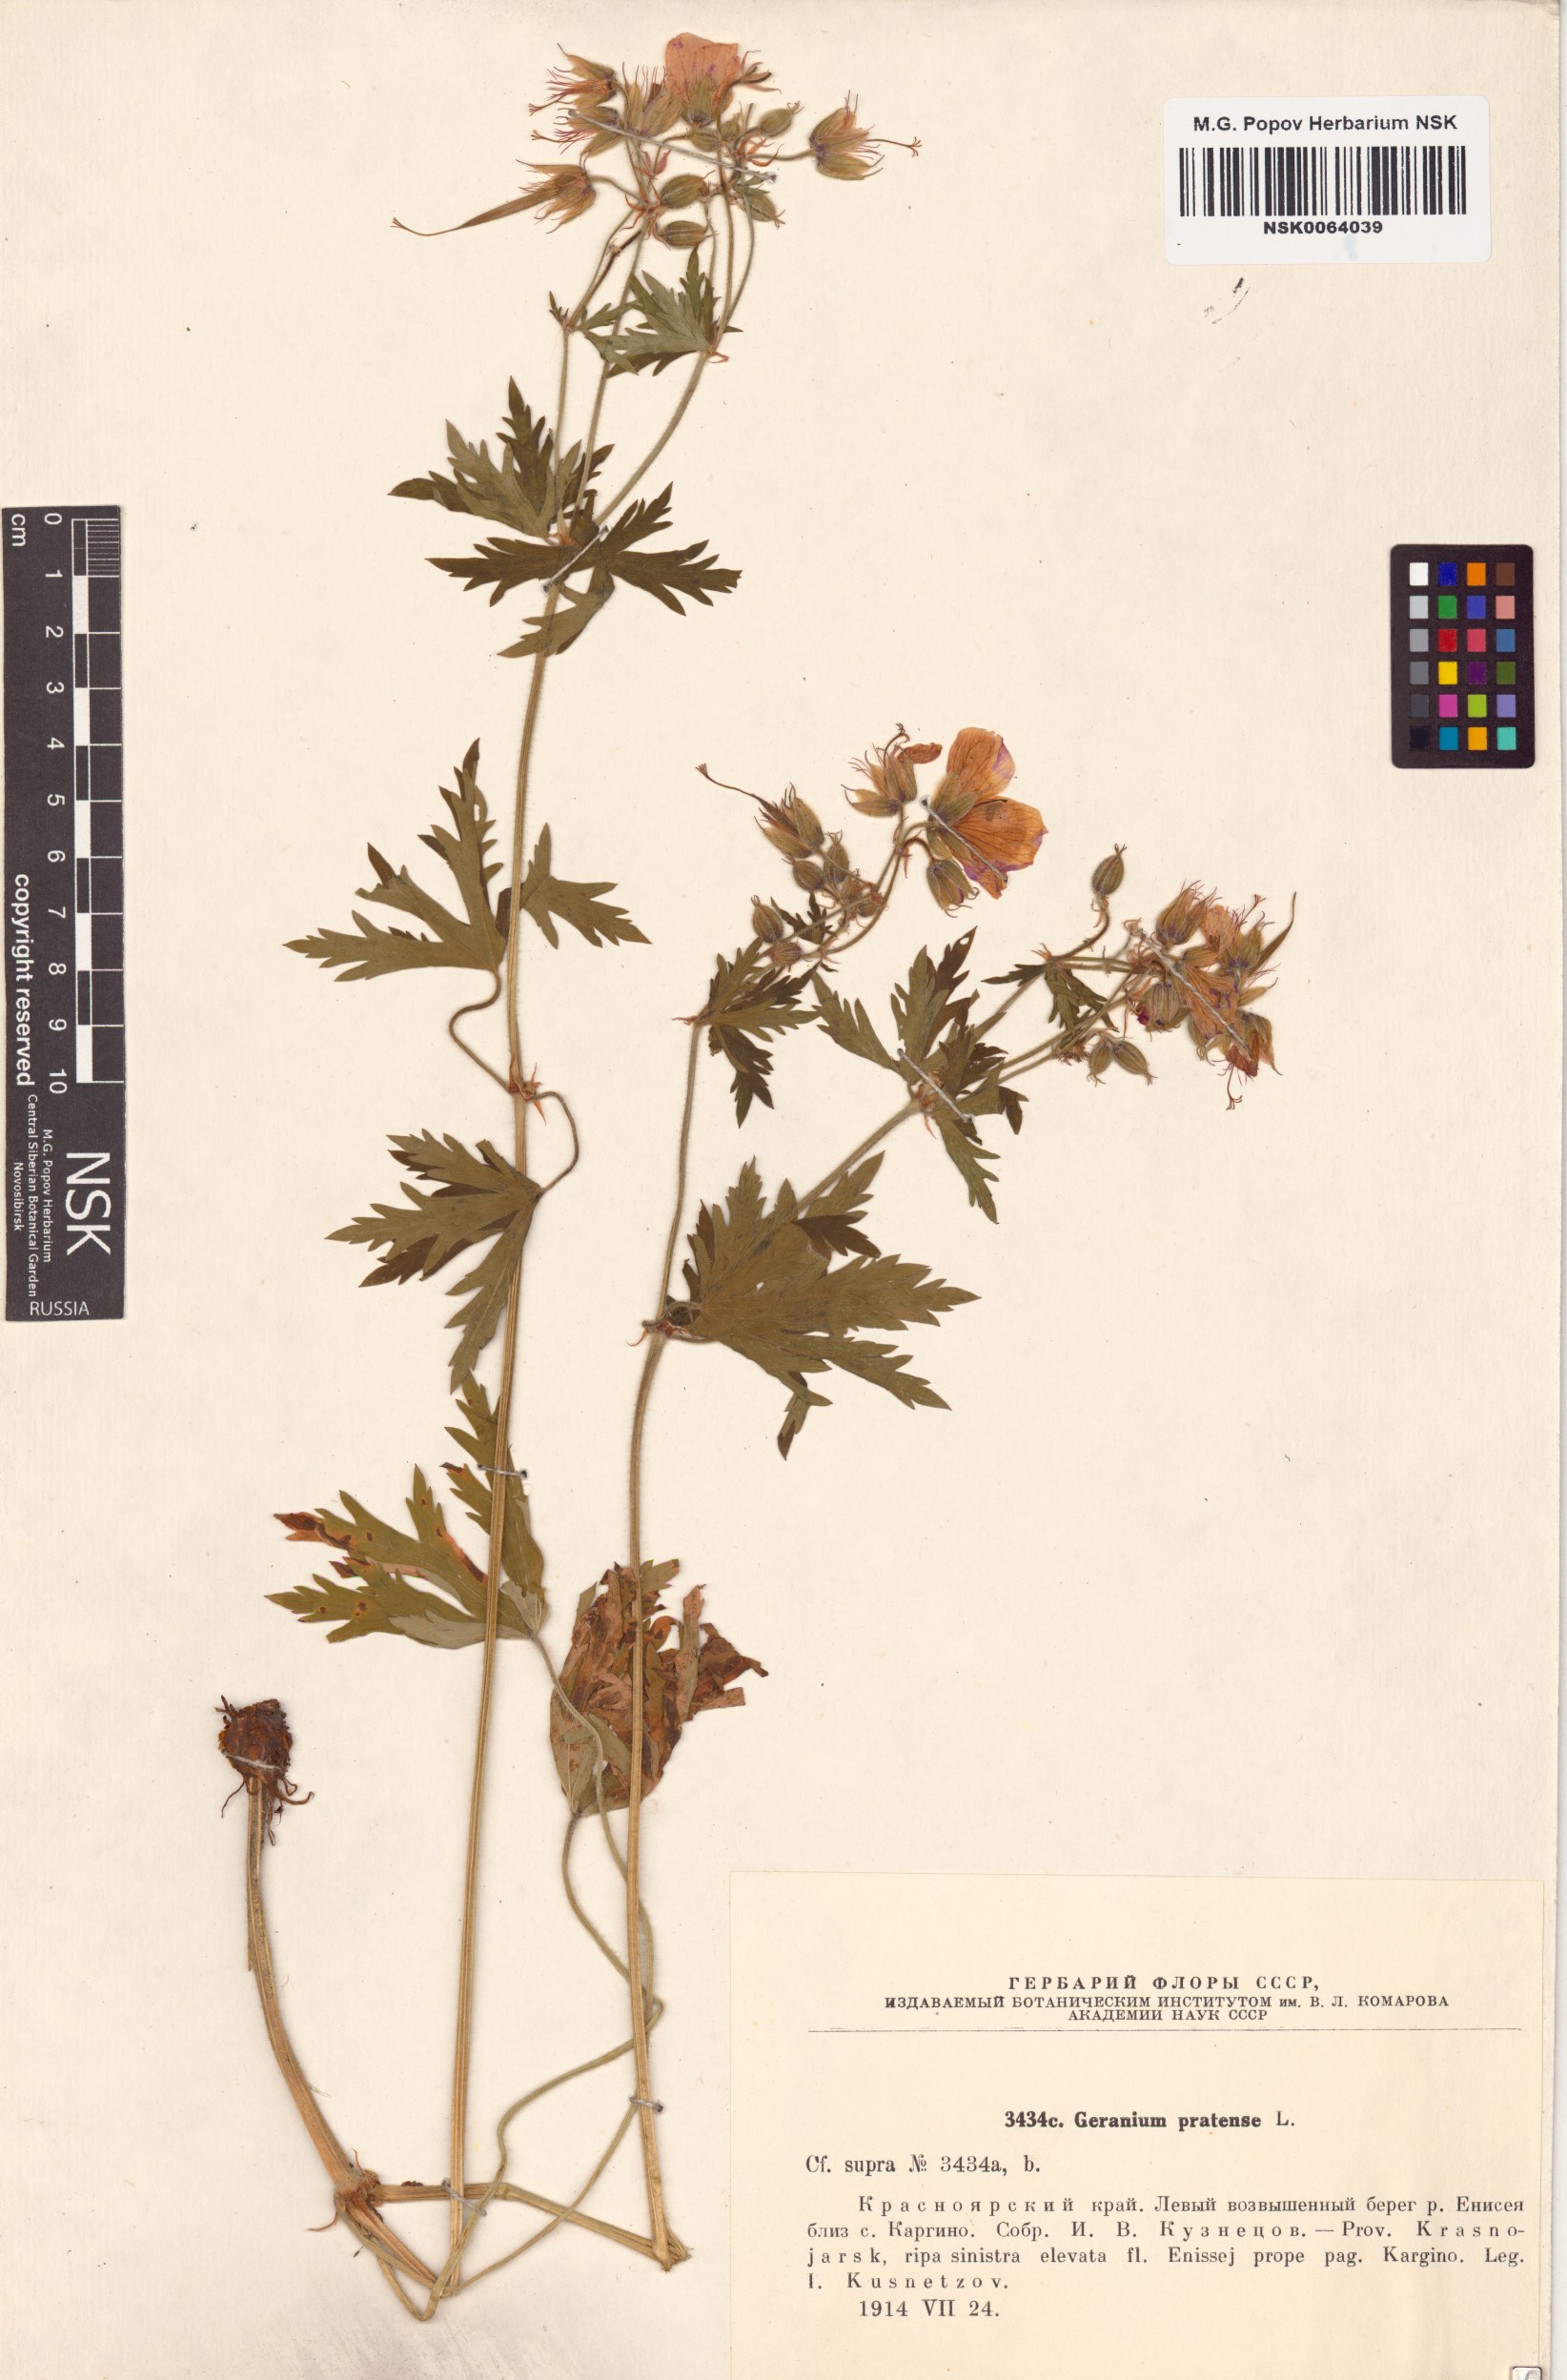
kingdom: Plantae
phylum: Tracheophyta
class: Magnoliopsida
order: Geraniales
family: Geraniaceae
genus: Geranium
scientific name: Geranium pratense
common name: Meadow crane's-bill
